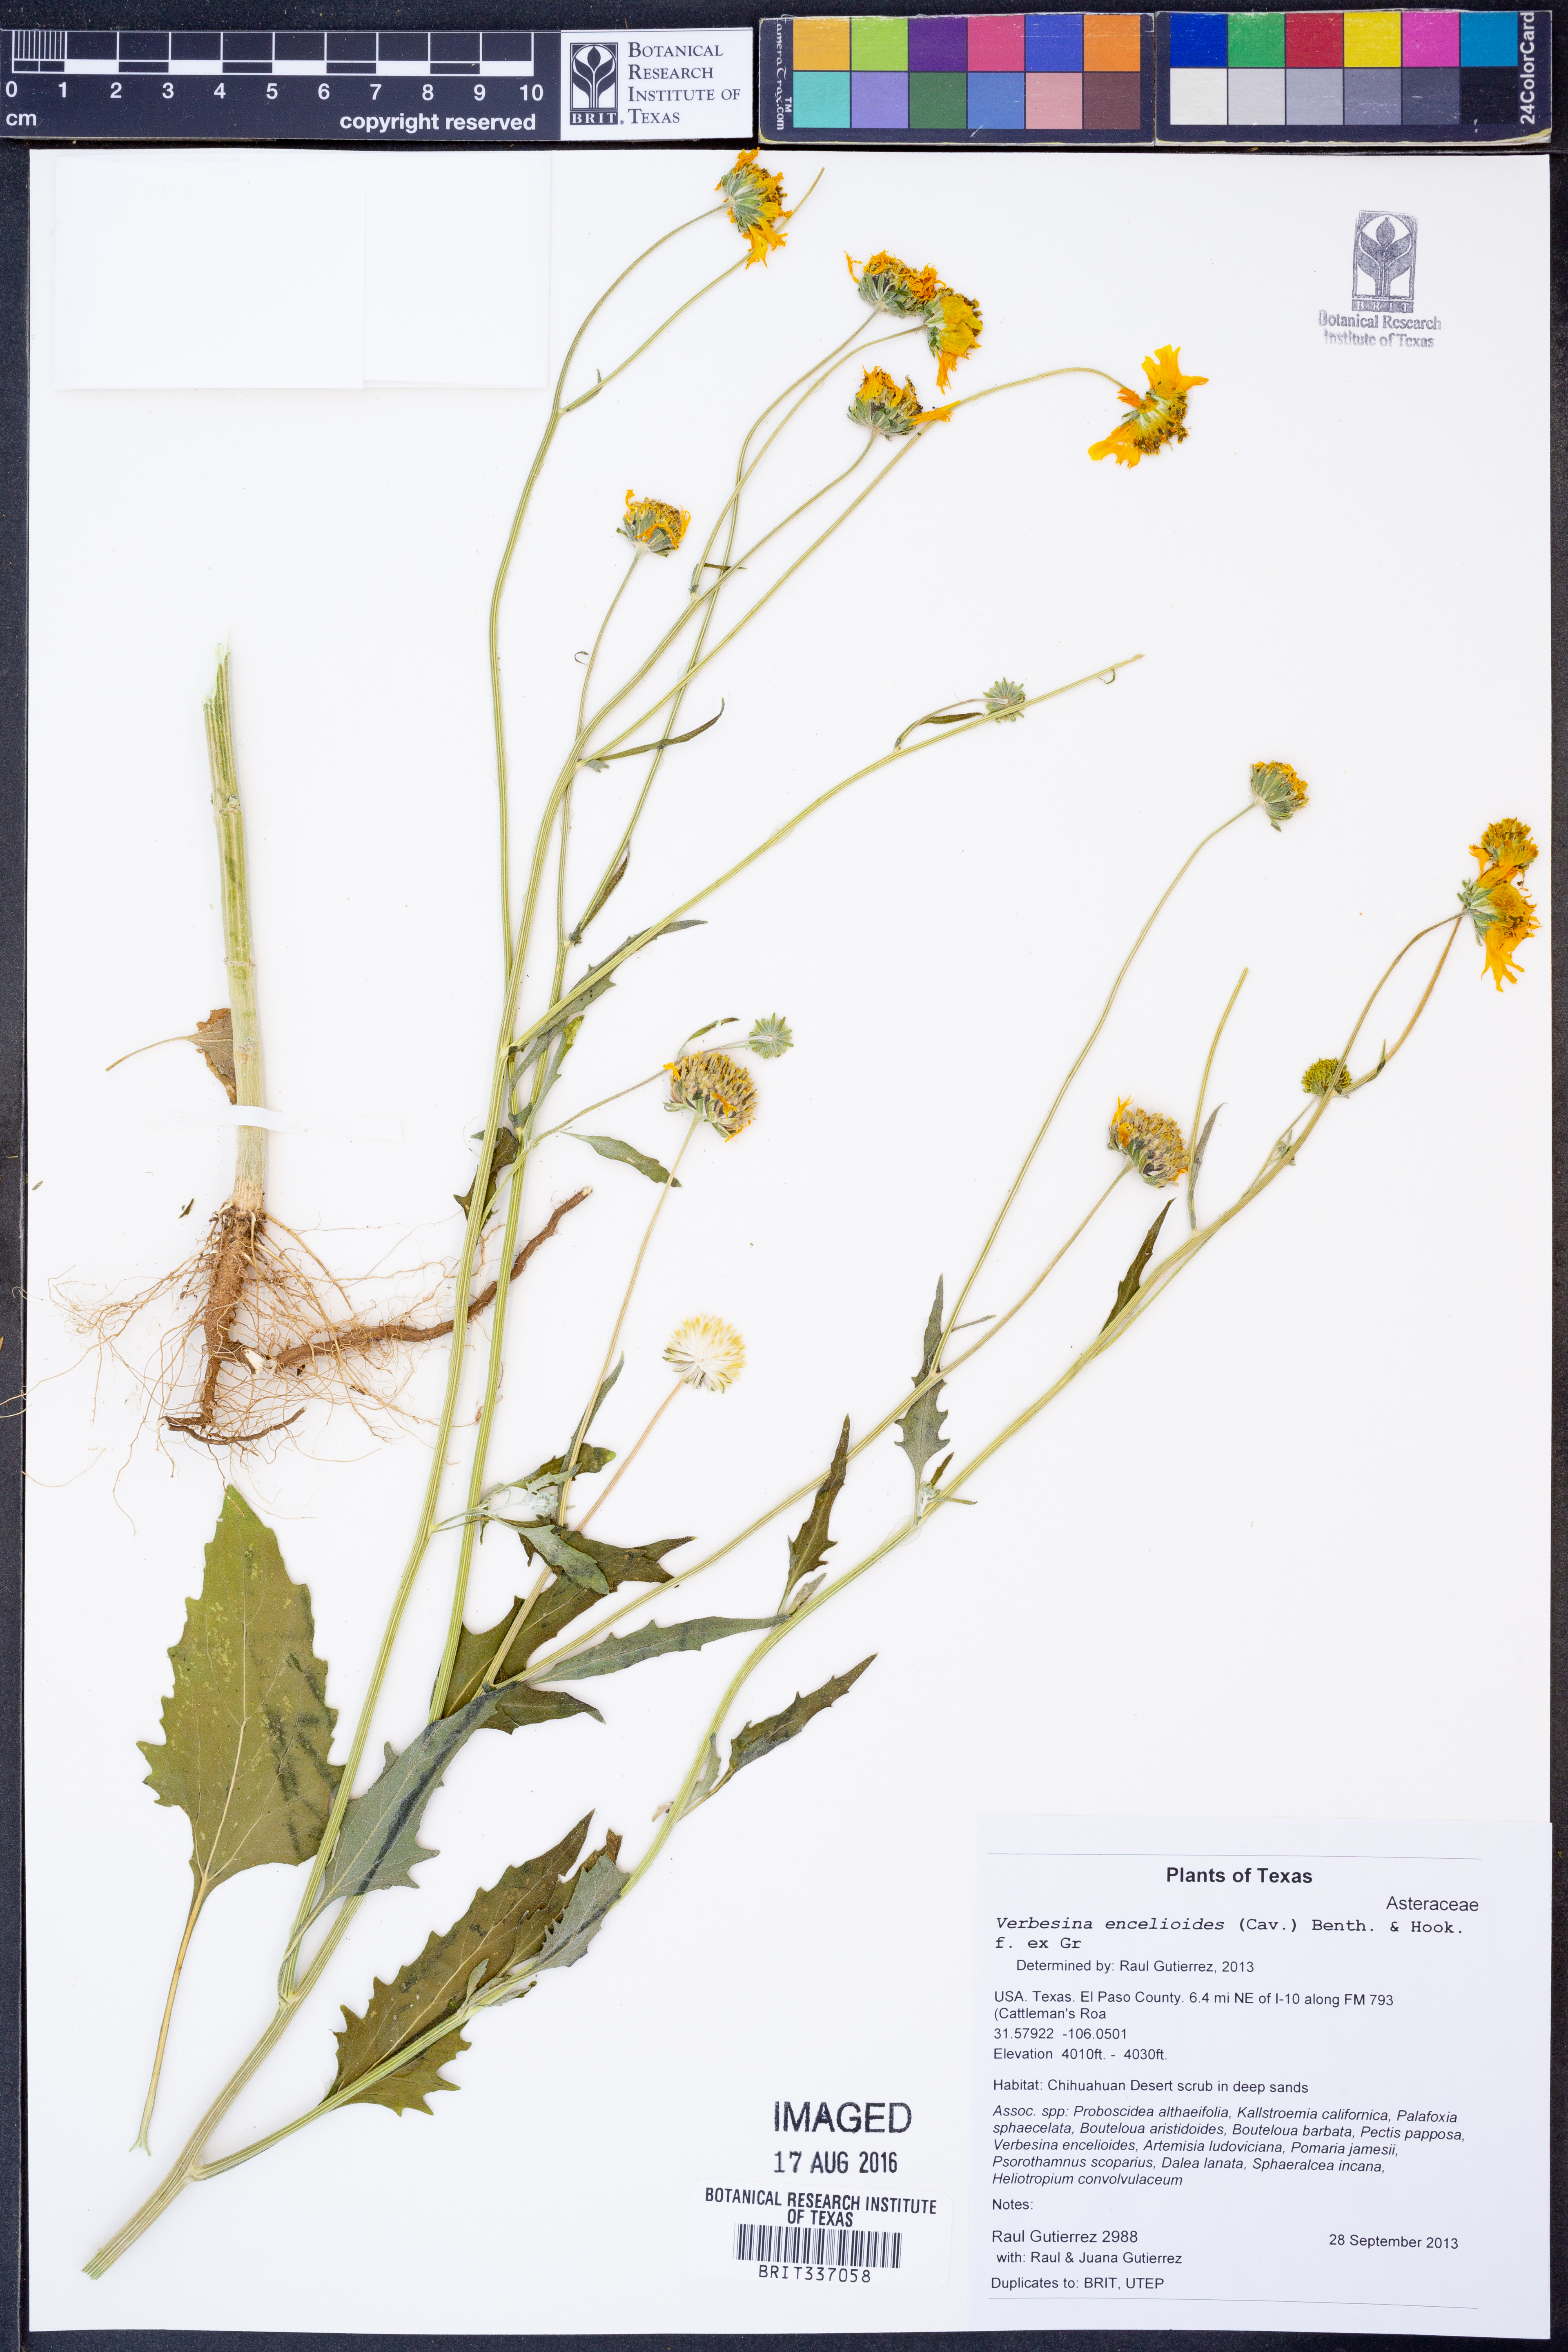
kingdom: Plantae
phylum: Tracheophyta
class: Magnoliopsida
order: Asterales
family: Asteraceae
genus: Verbesina
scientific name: Verbesina encelioides
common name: Golden crownbeard
